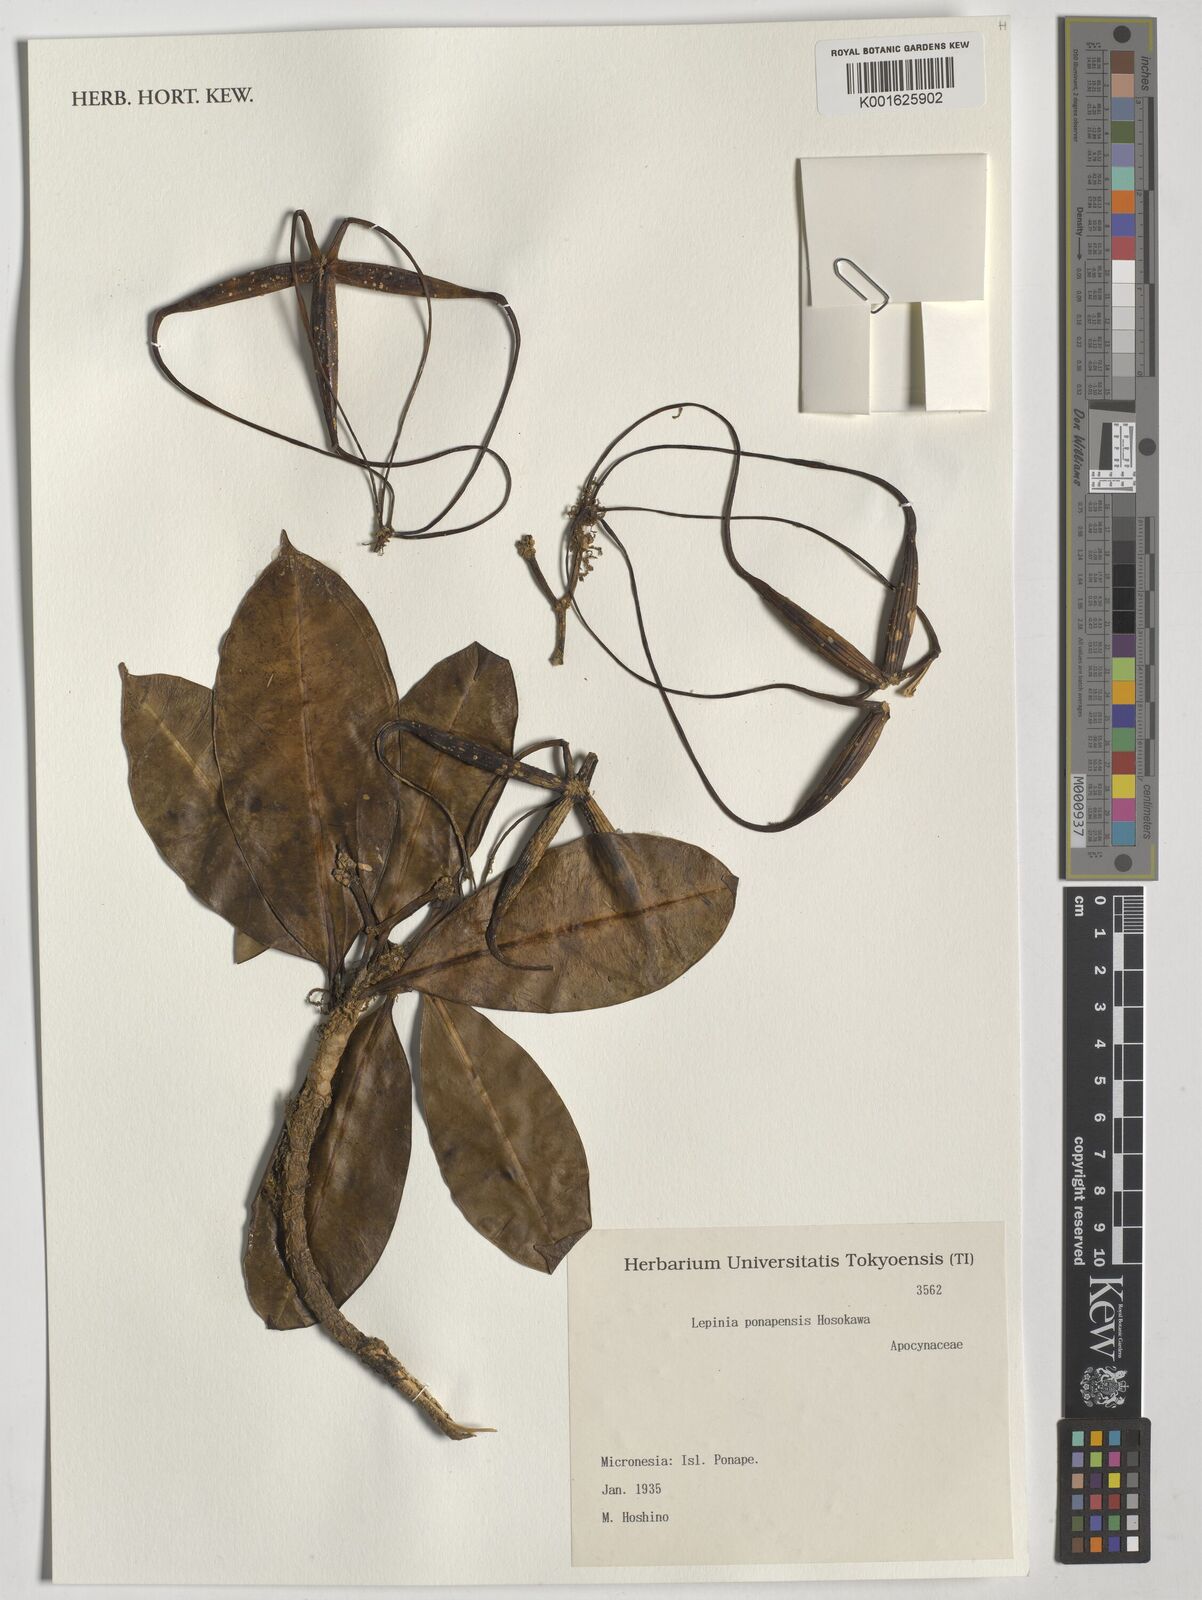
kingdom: Plantae
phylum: Tracheophyta
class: Magnoliopsida
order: Gentianales
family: Apocynaceae
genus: Lepinia
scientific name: Lepinia ponapensis
